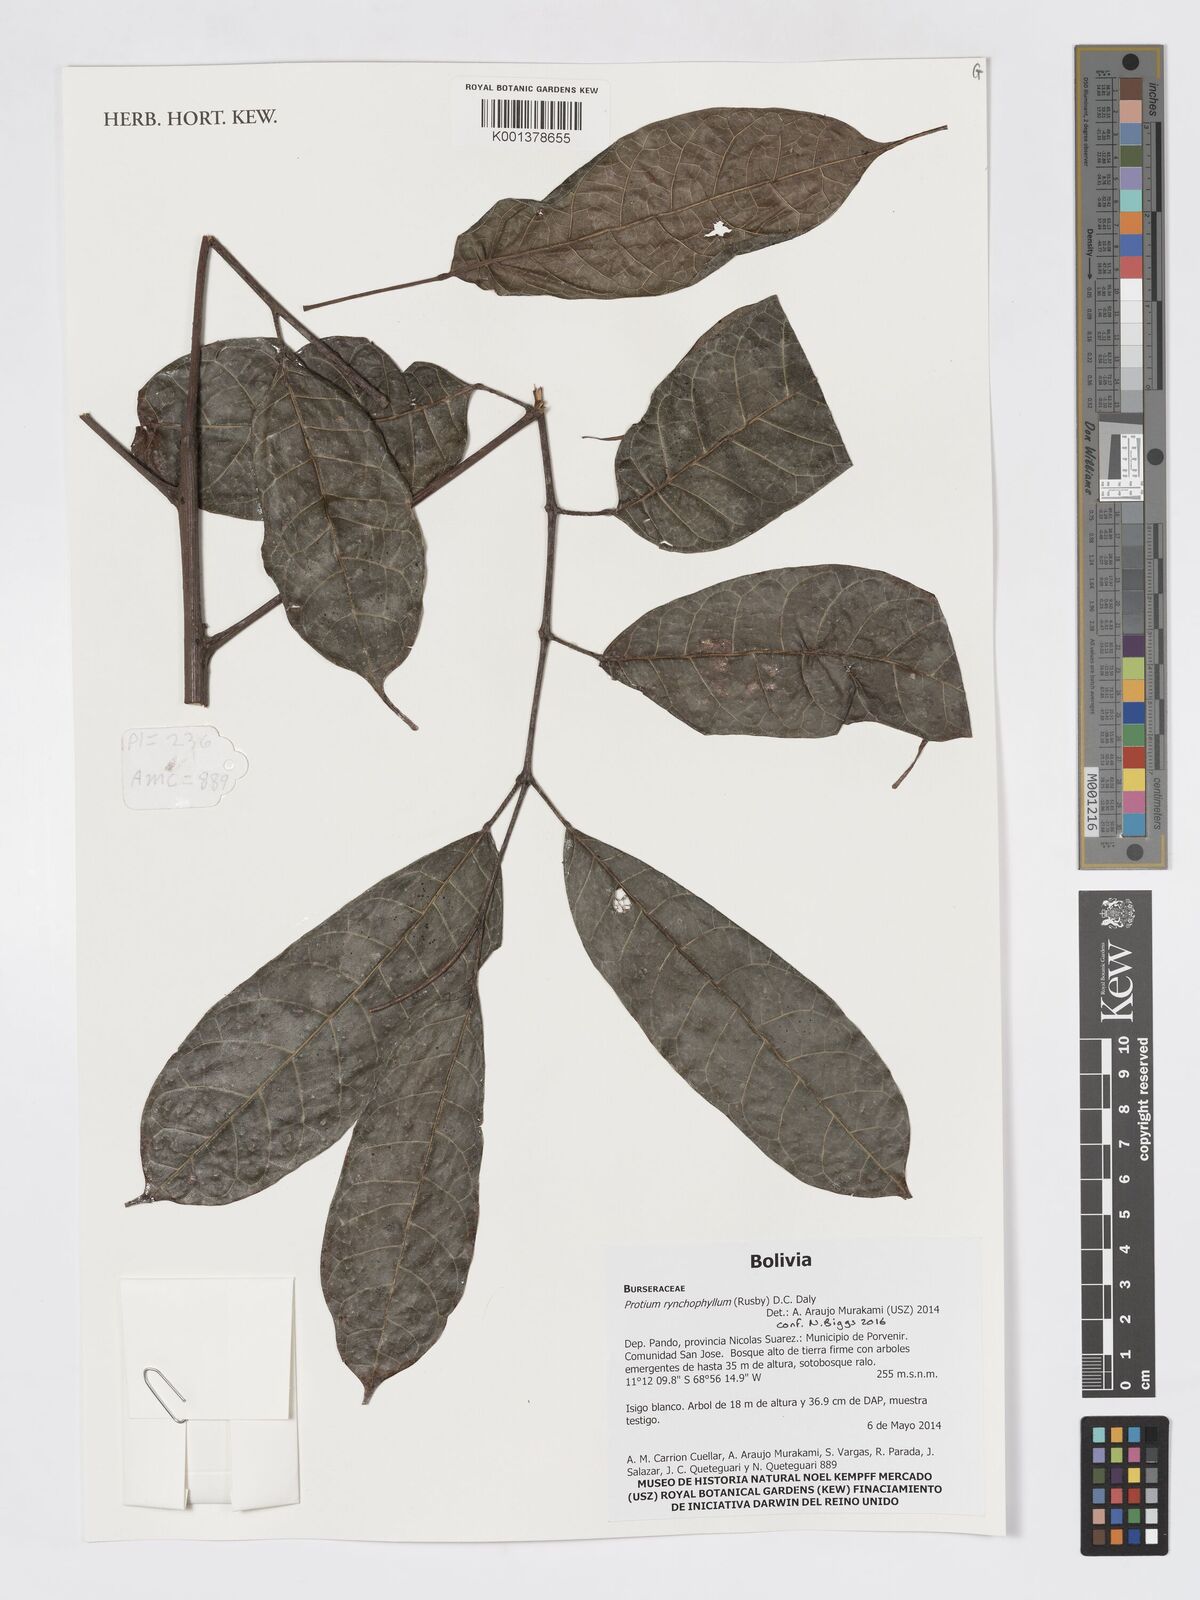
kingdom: Plantae
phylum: Tracheophyta
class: Magnoliopsida
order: Sapindales
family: Burseraceae
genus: Protium
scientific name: Protium rhynchophyllum
